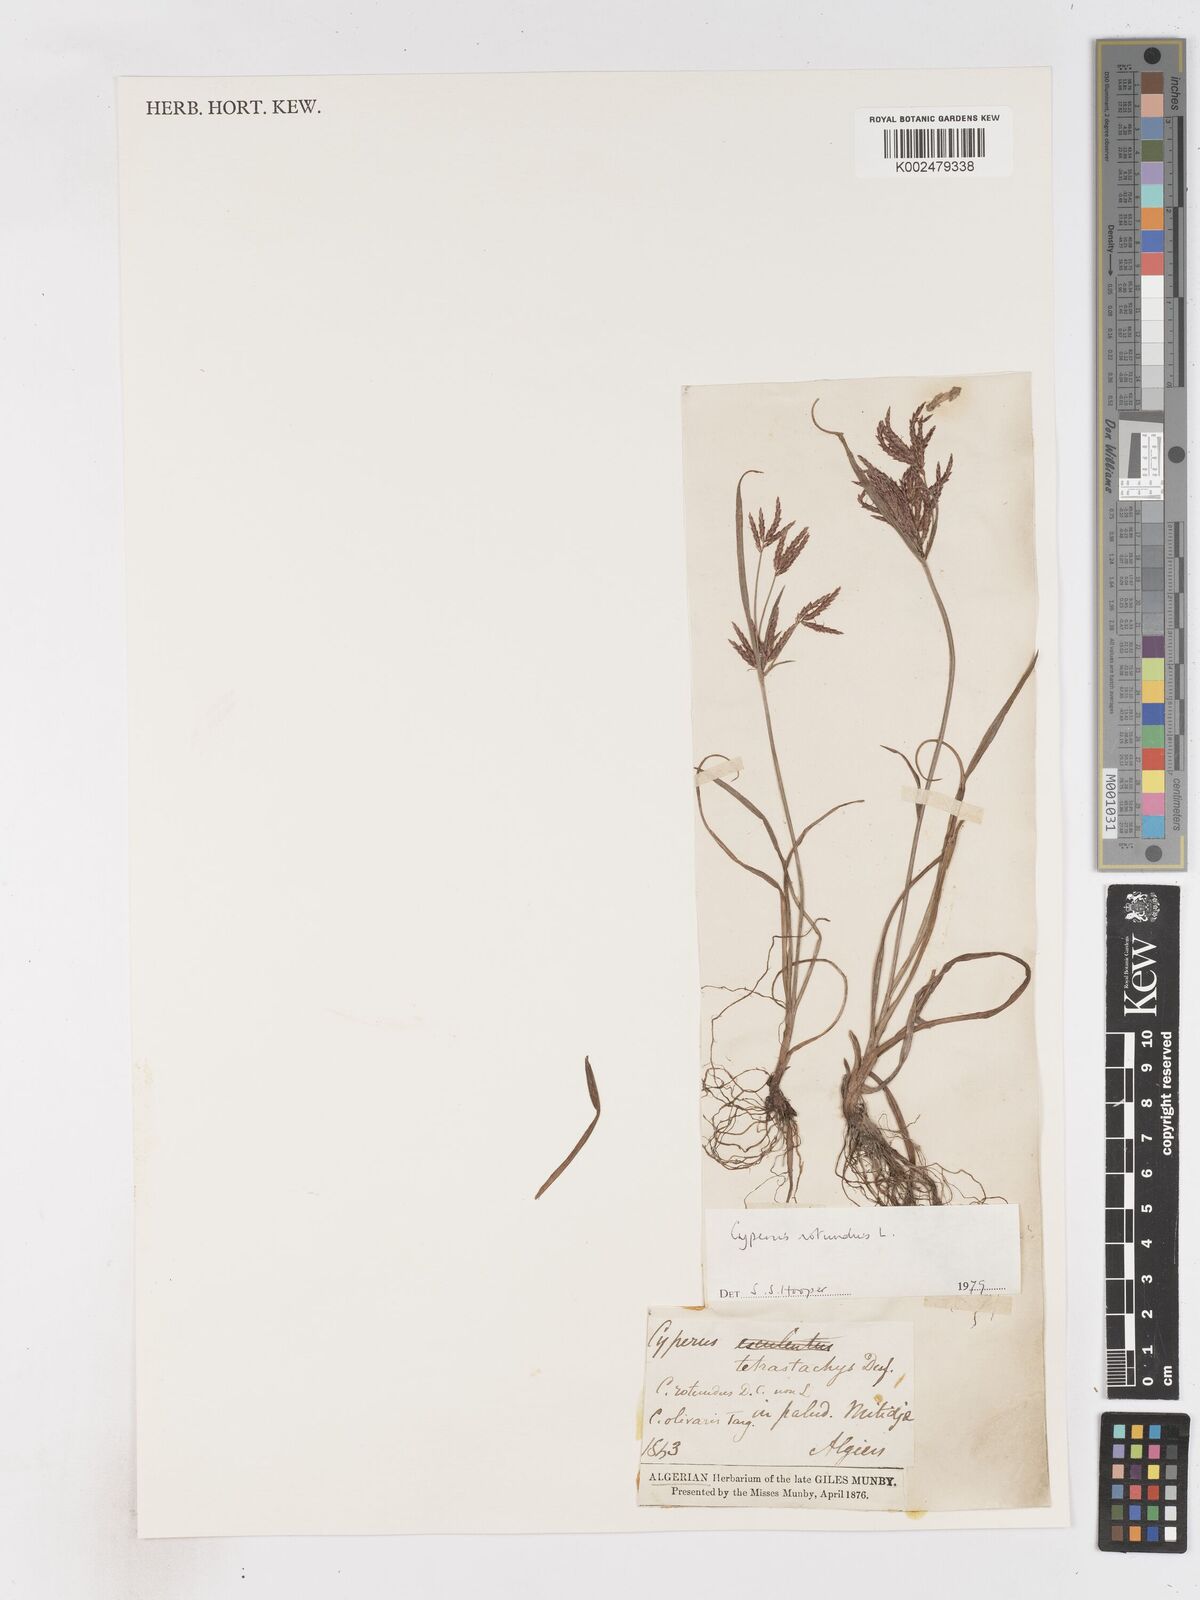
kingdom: Plantae
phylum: Tracheophyta
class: Liliopsida
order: Poales
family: Cyperaceae
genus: Cyperus
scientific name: Cyperus rotundus
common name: Nutgrass
